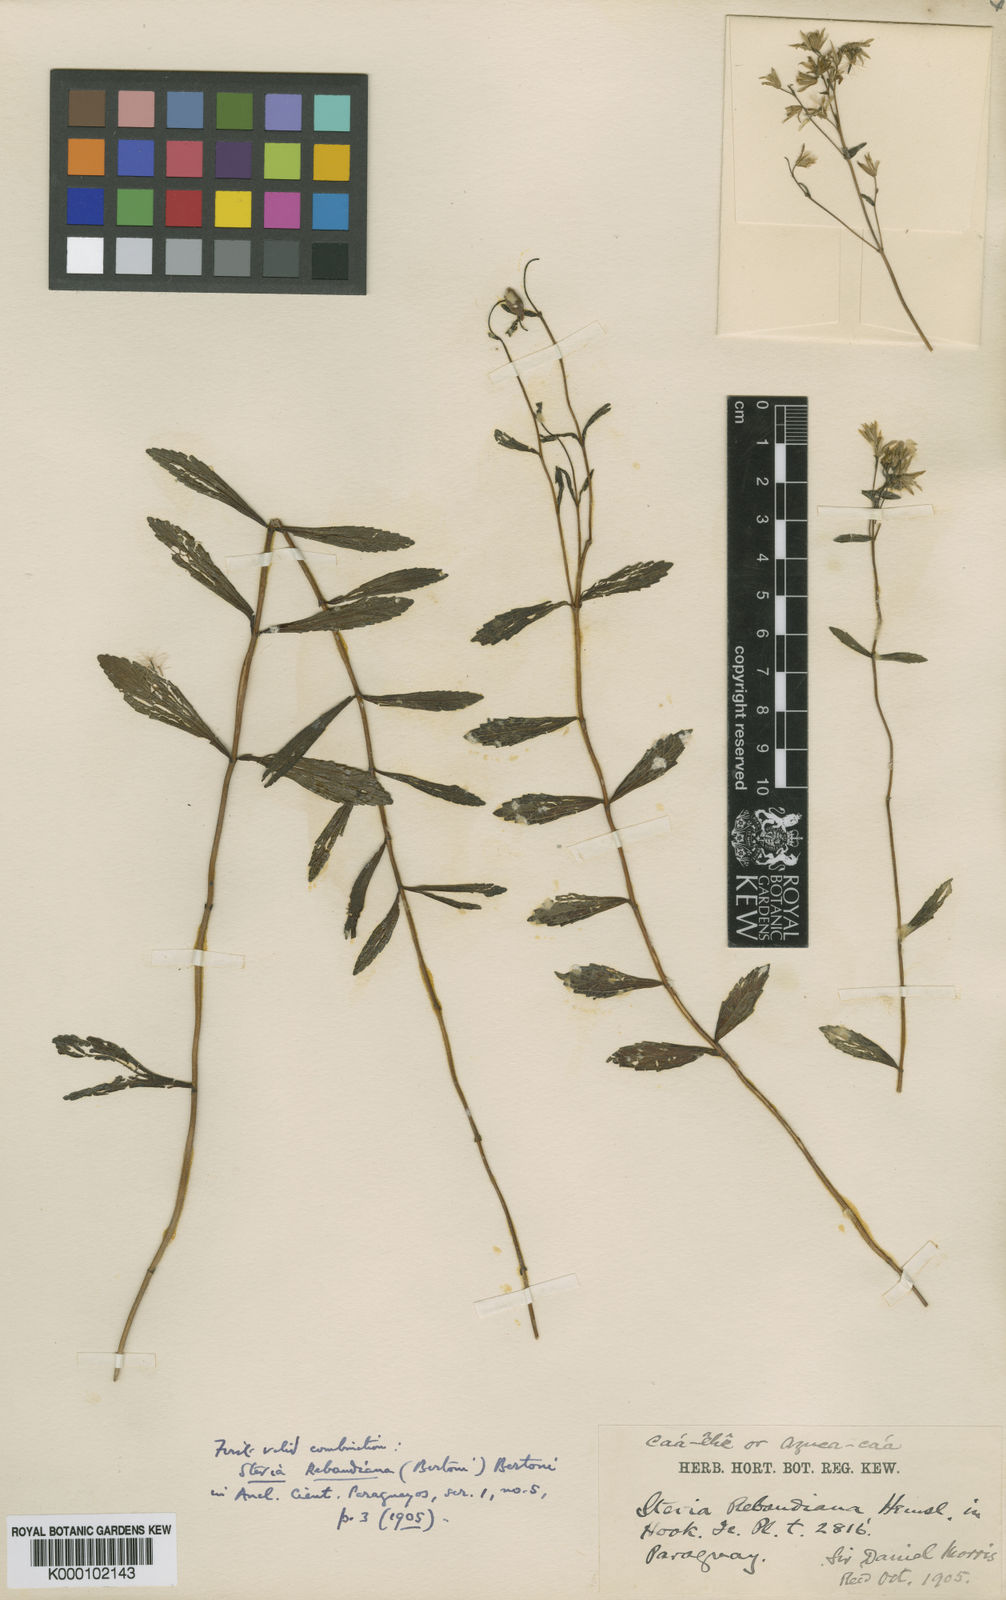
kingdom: Plantae
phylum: Tracheophyta
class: Magnoliopsida
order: Asterales
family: Asteraceae
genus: Stevia
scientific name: Stevia rebaudiana
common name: Stevia
